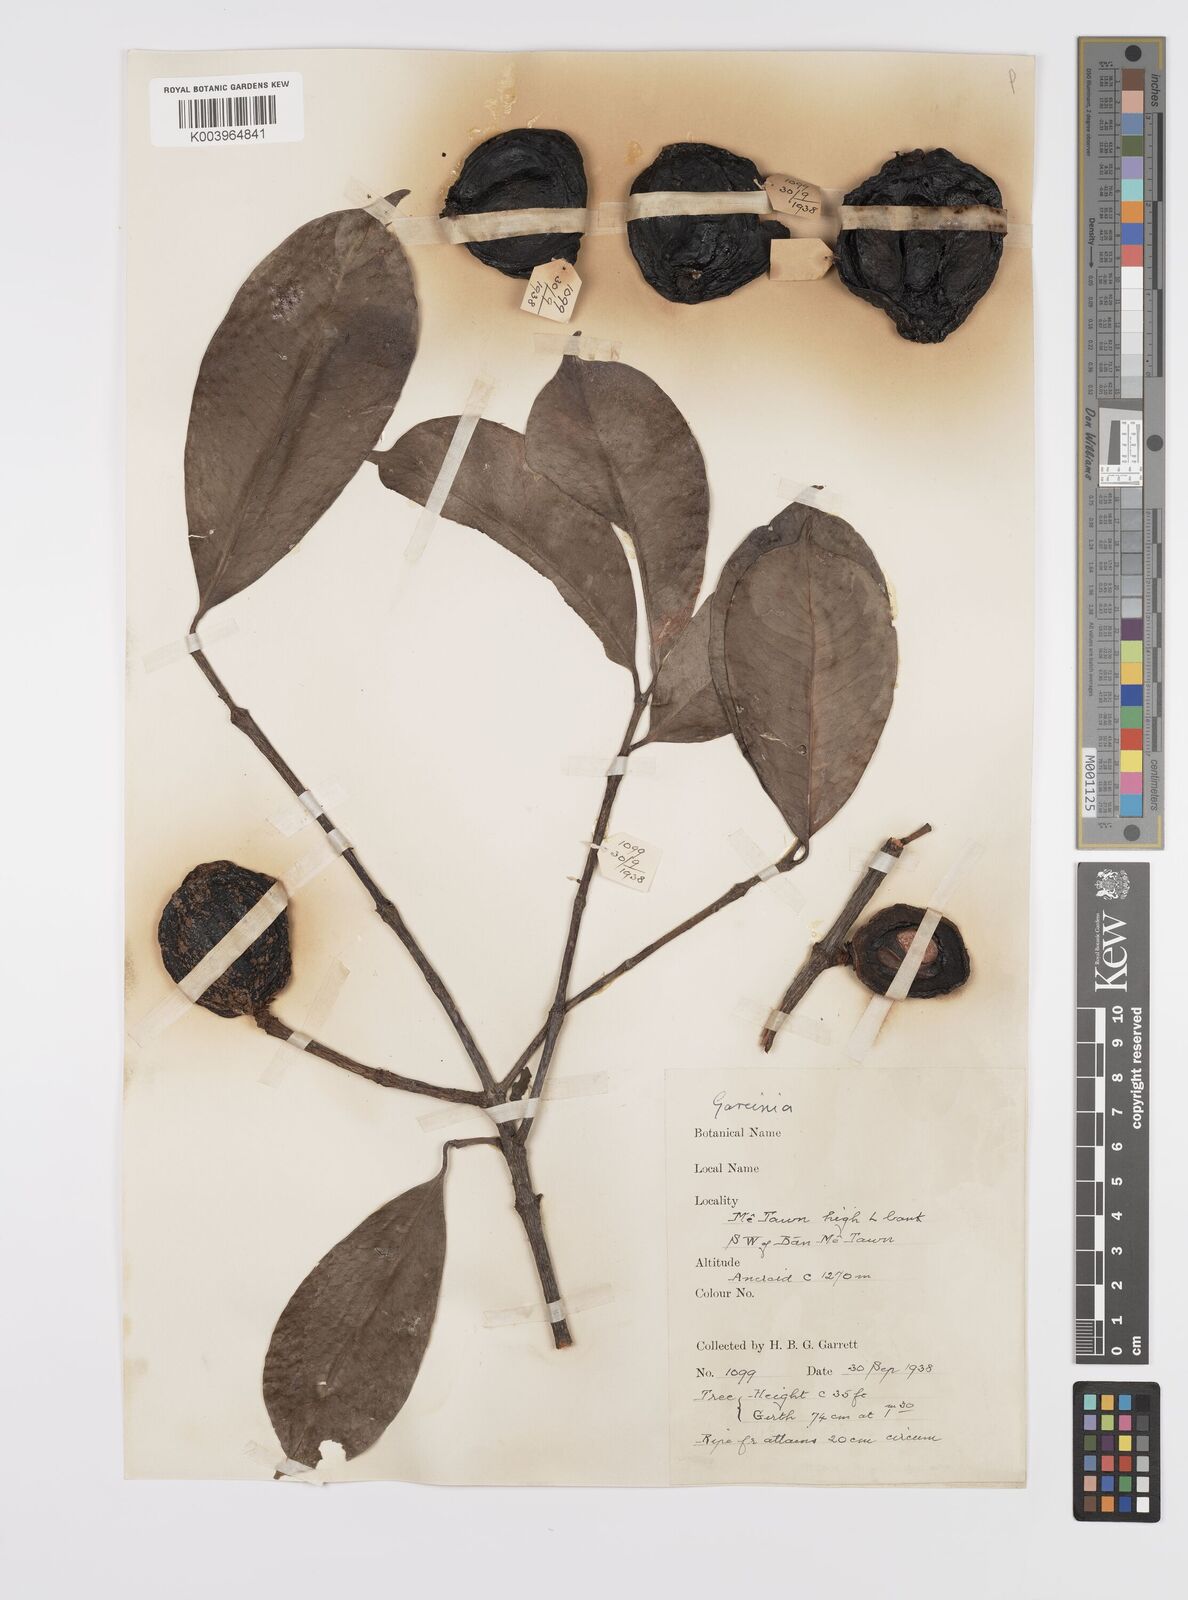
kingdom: Plantae
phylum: Tracheophyta
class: Magnoliopsida
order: Malpighiales
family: Clusiaceae
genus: Garcinia
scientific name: Garcinia
